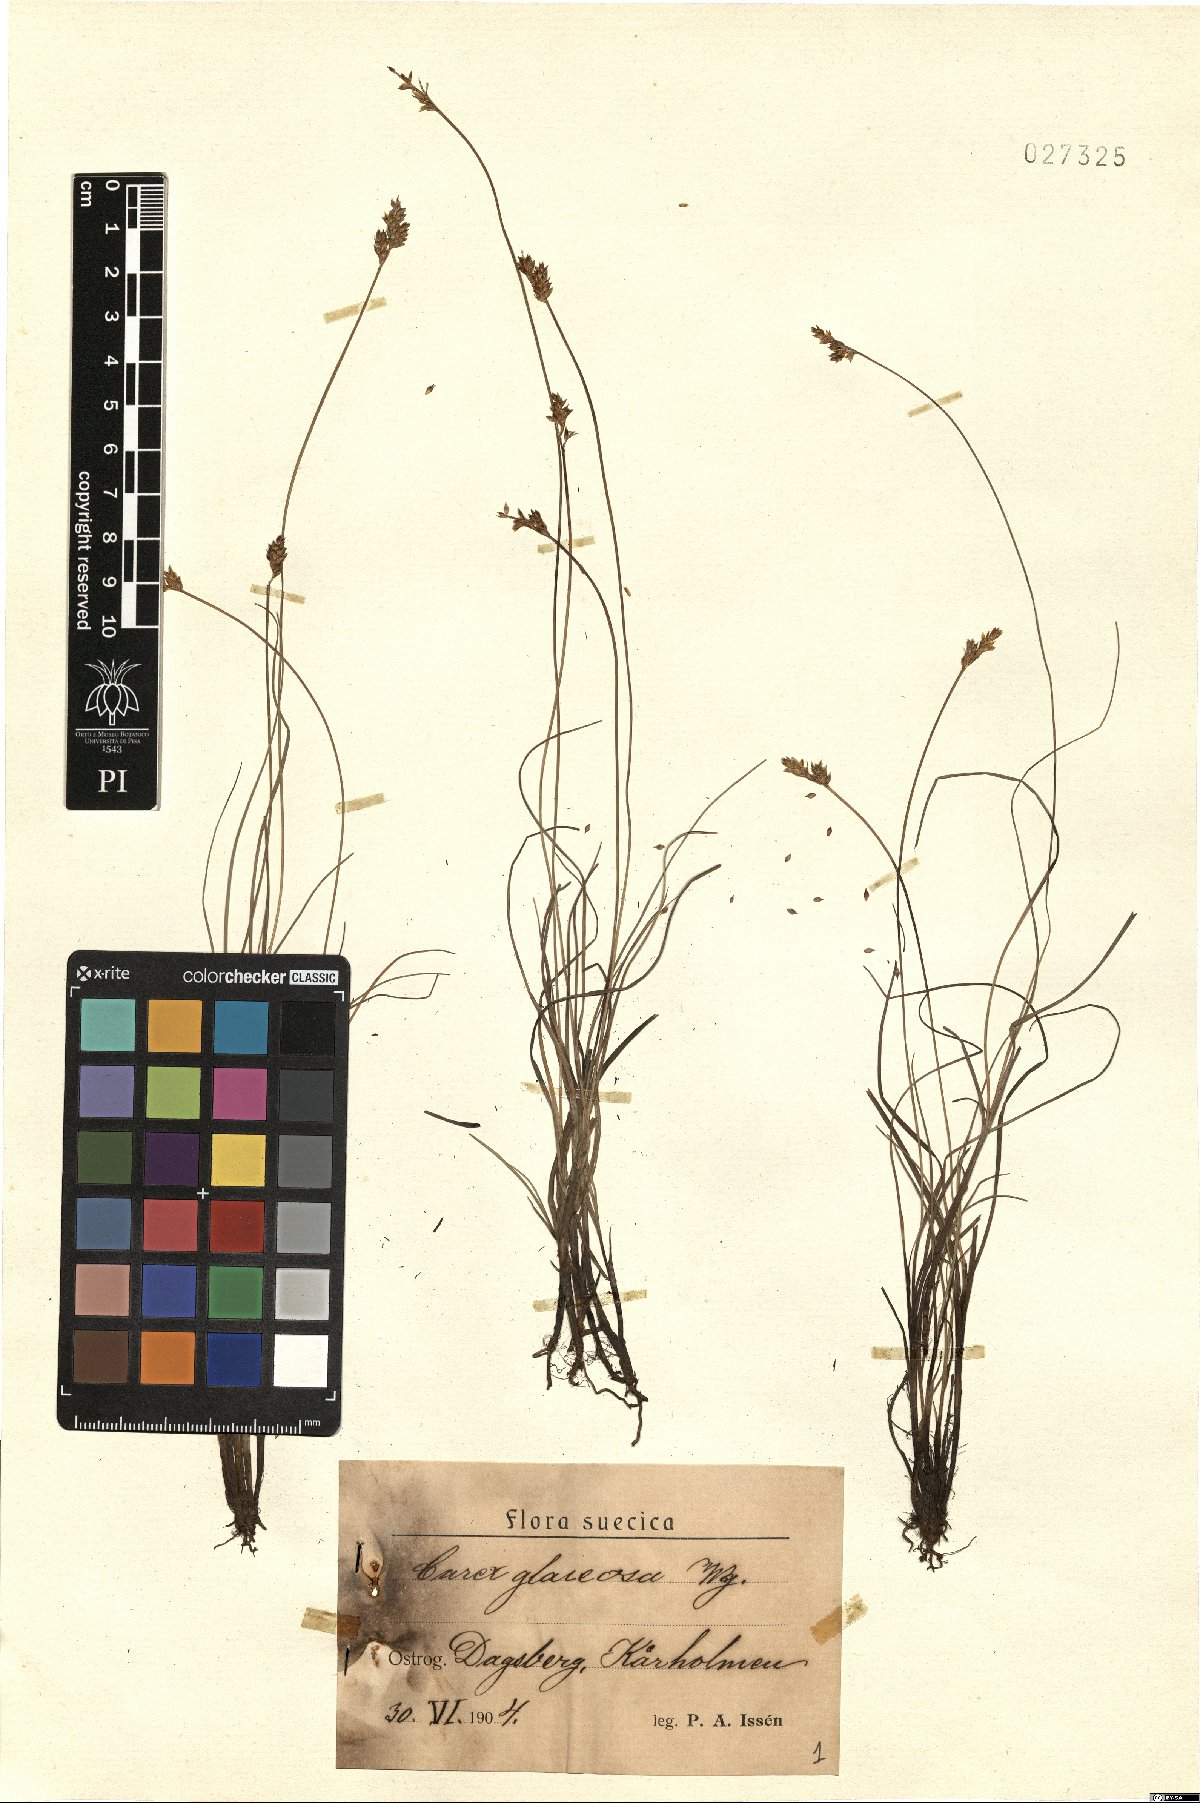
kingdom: Plantae
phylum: Tracheophyta
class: Liliopsida
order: Poales
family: Cyperaceae
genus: Carex
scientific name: Carex glareosa
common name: Clustered sedge
